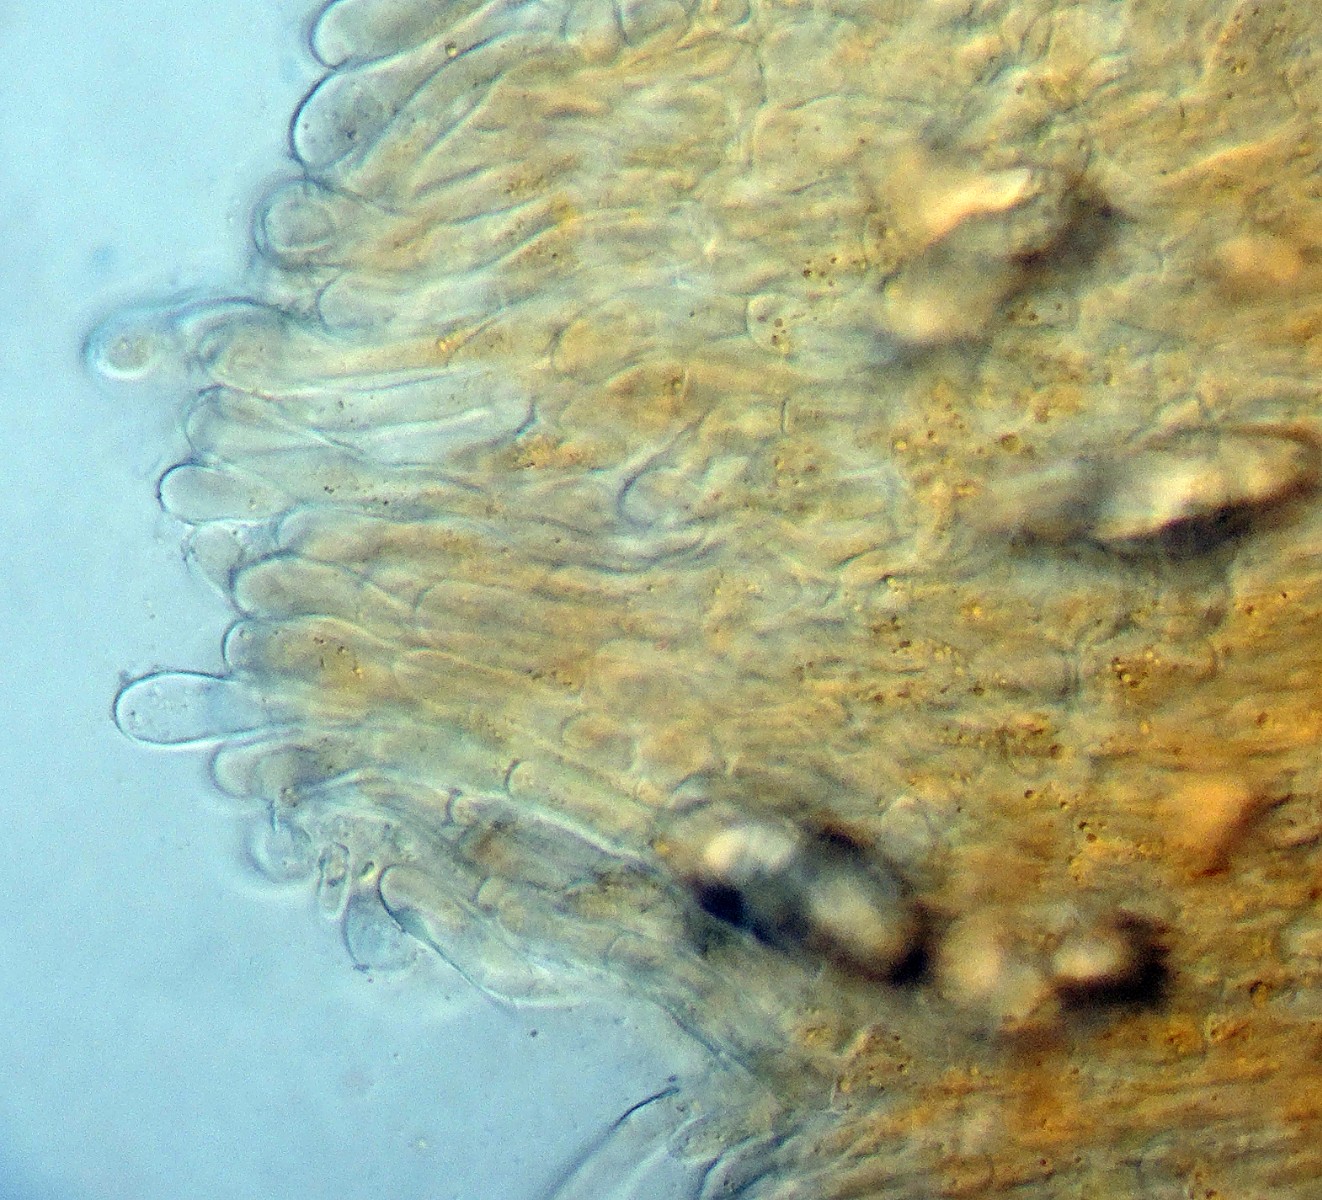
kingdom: Fungi
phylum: Ascomycota
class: Pezizomycetes
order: Pezizales
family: Pyronemataceae
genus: Octospora
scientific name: Octospora excipulata
